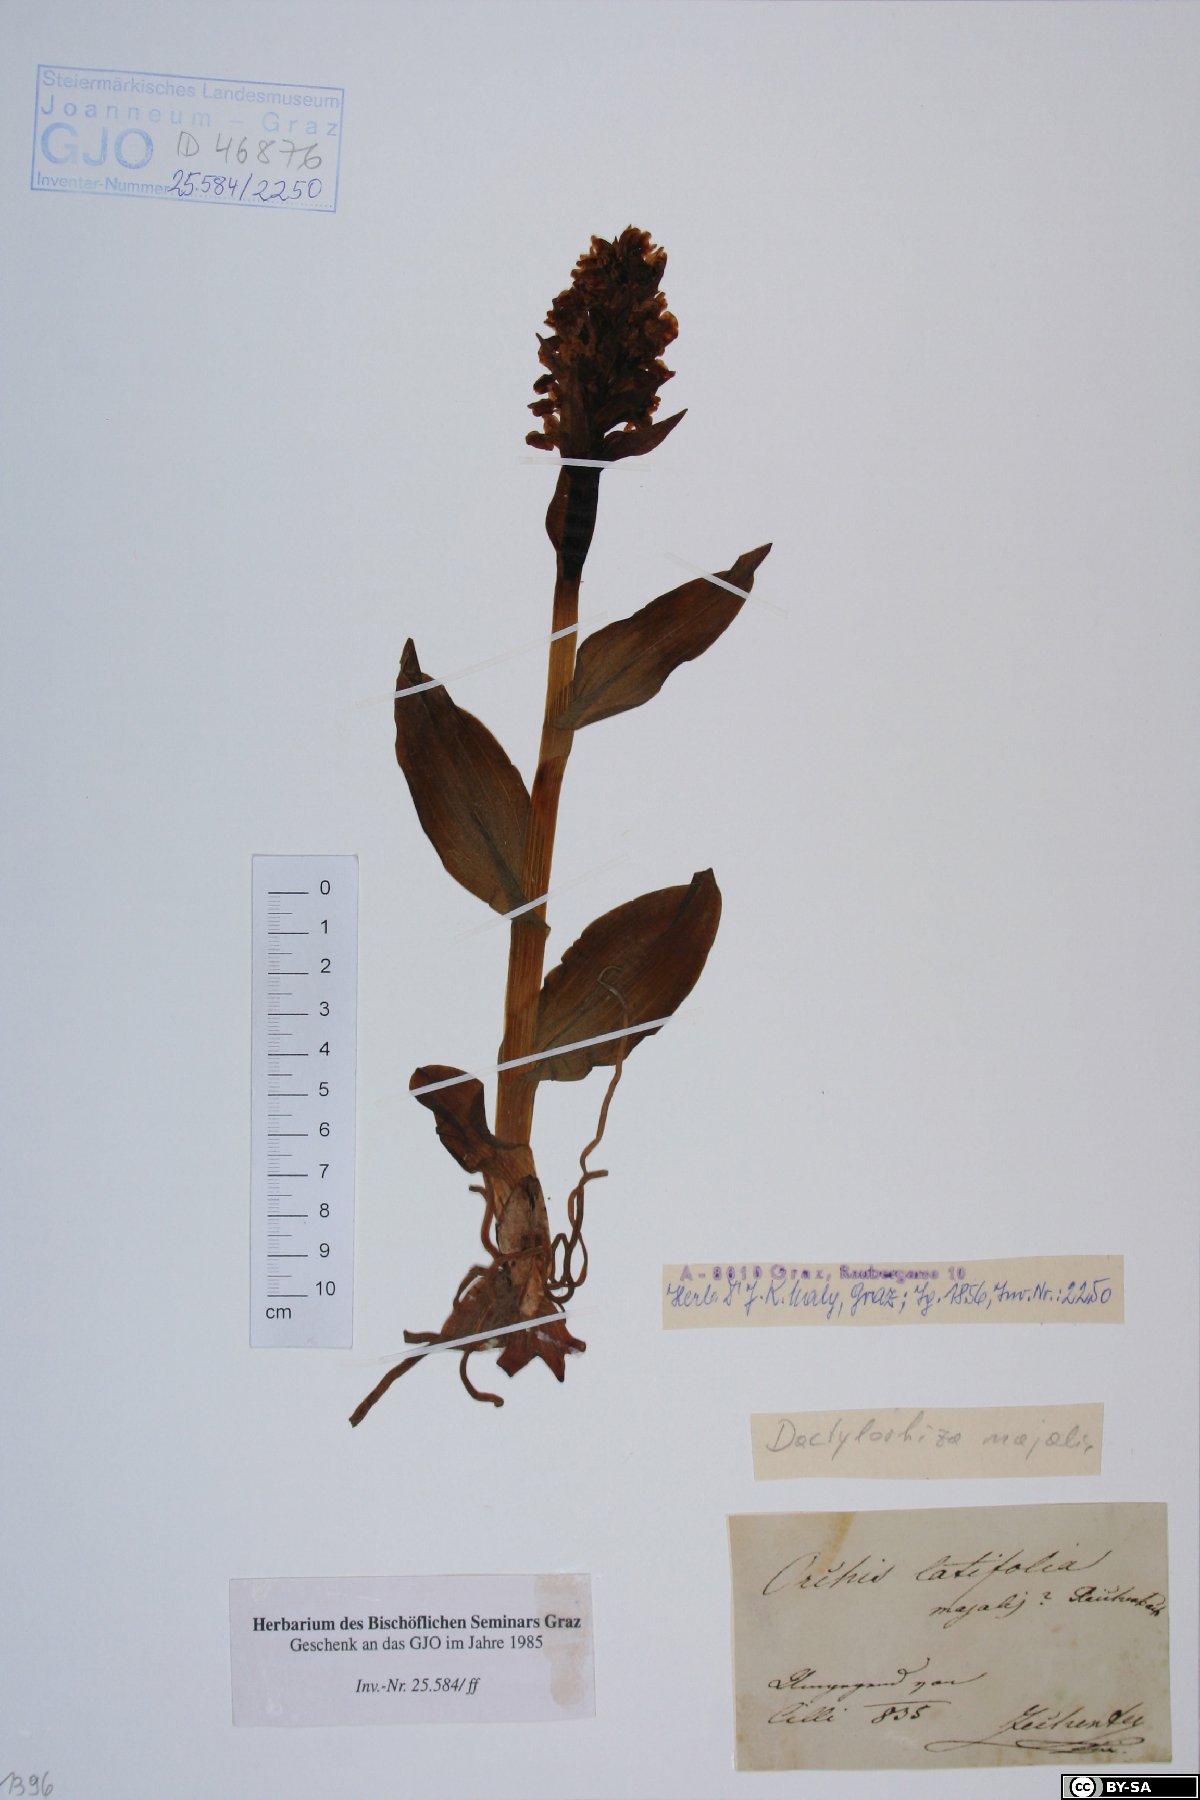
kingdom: Plantae
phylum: Tracheophyta
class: Liliopsida
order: Asparagales
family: Orchidaceae
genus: Dactylorhiza
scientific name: Dactylorhiza majalis
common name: Marsh orchid
